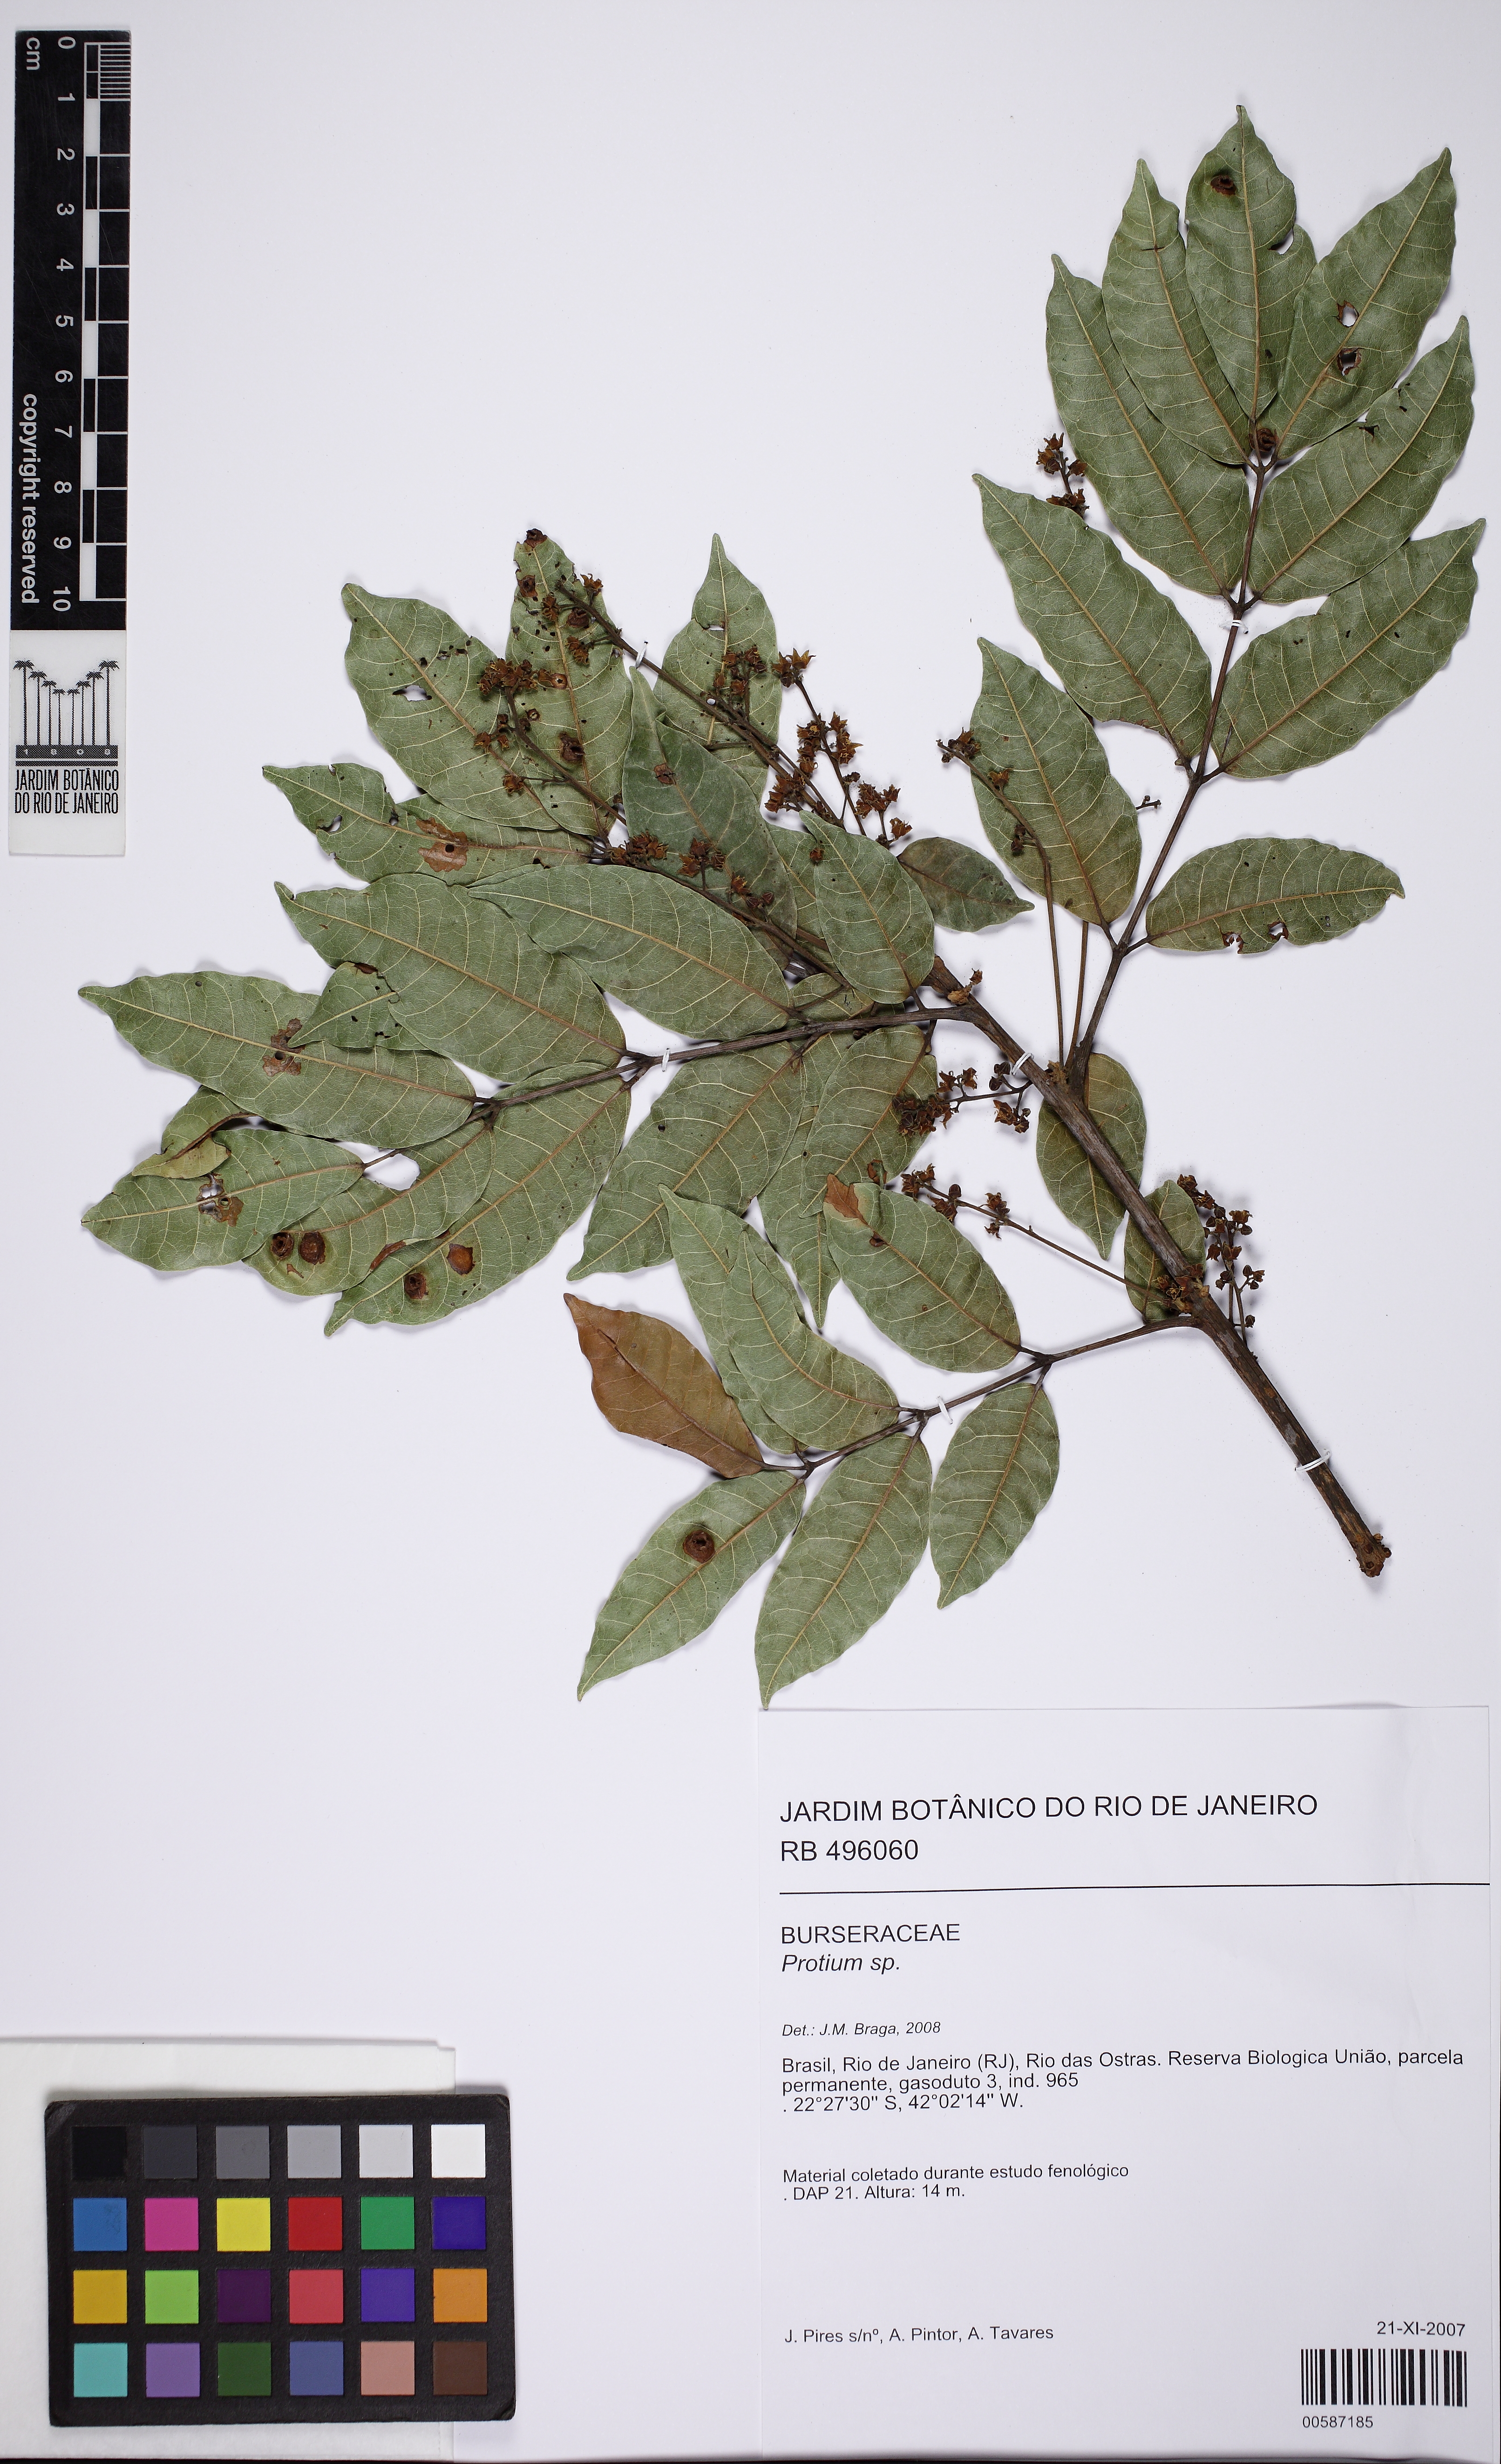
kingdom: Plantae
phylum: Tracheophyta
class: Magnoliopsida
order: Sapindales
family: Burseraceae
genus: Protium
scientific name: Protium widgrenii
